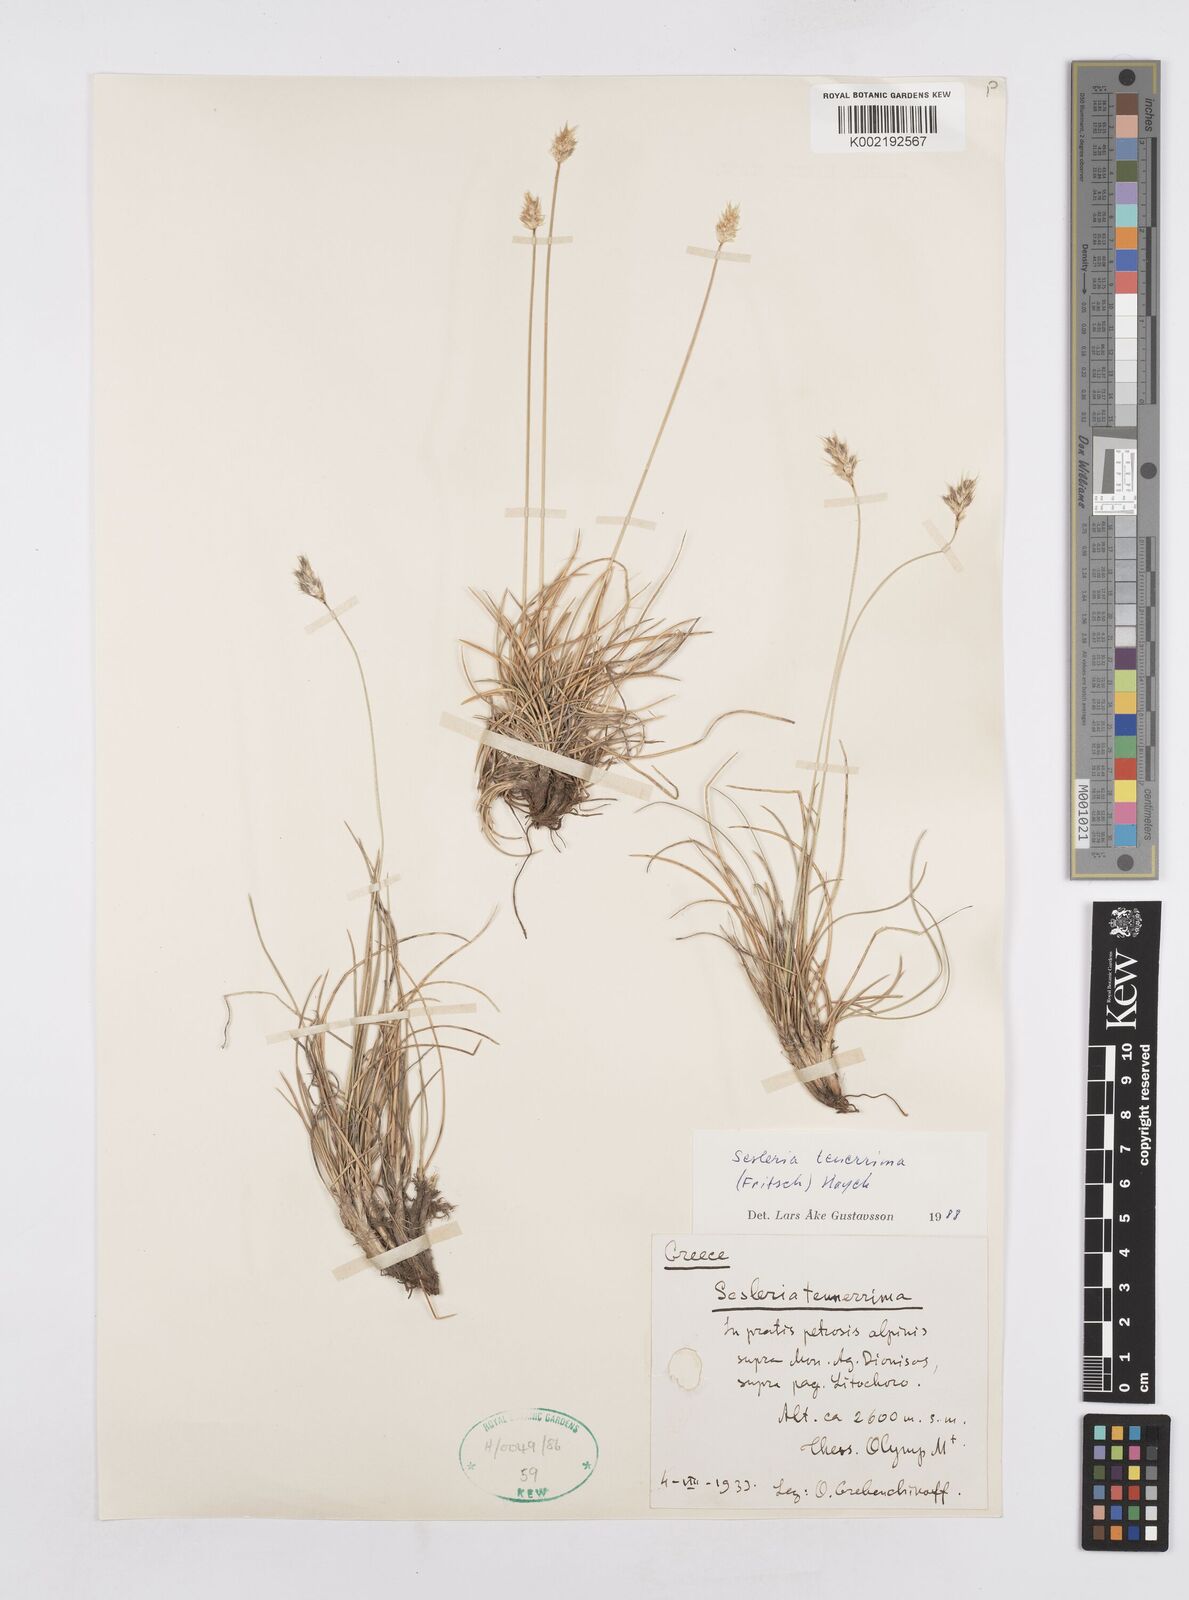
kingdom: Plantae
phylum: Tracheophyta
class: Liliopsida
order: Poales
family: Poaceae
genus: Sesleria
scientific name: Sesleria tenerrima
